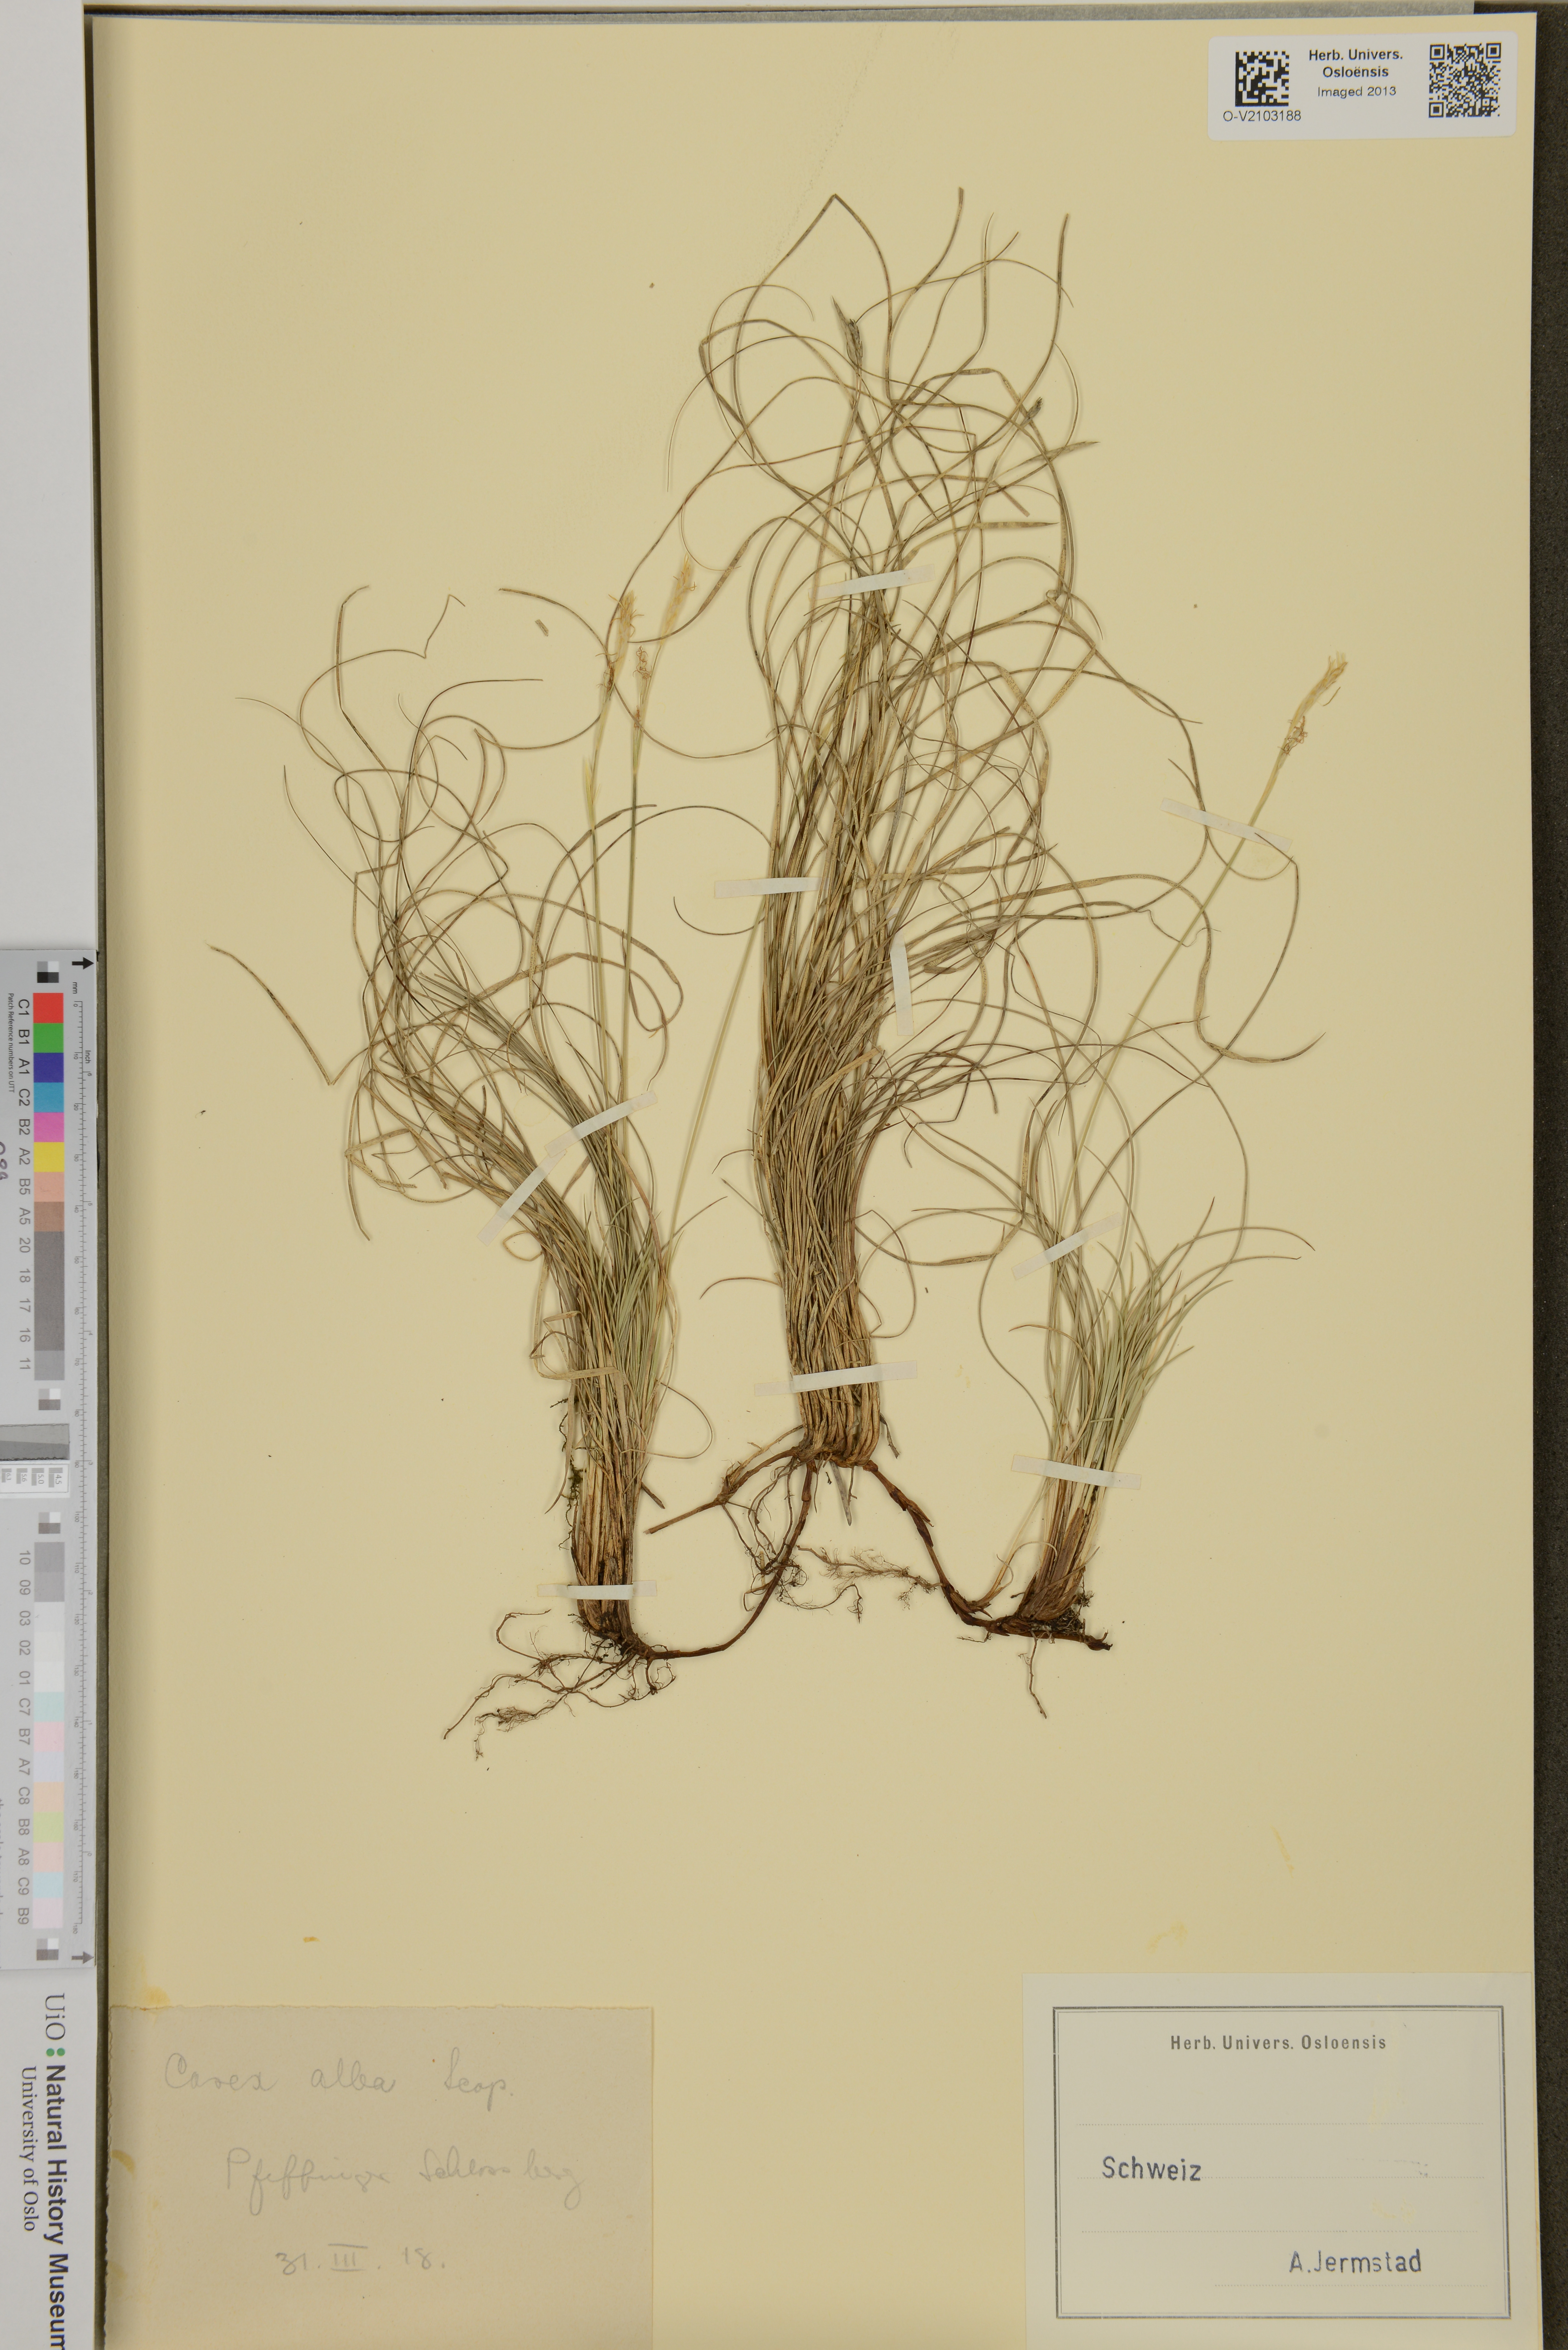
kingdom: Plantae
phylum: Tracheophyta
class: Liliopsida
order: Poales
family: Cyperaceae
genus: Carex
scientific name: Carex alba
